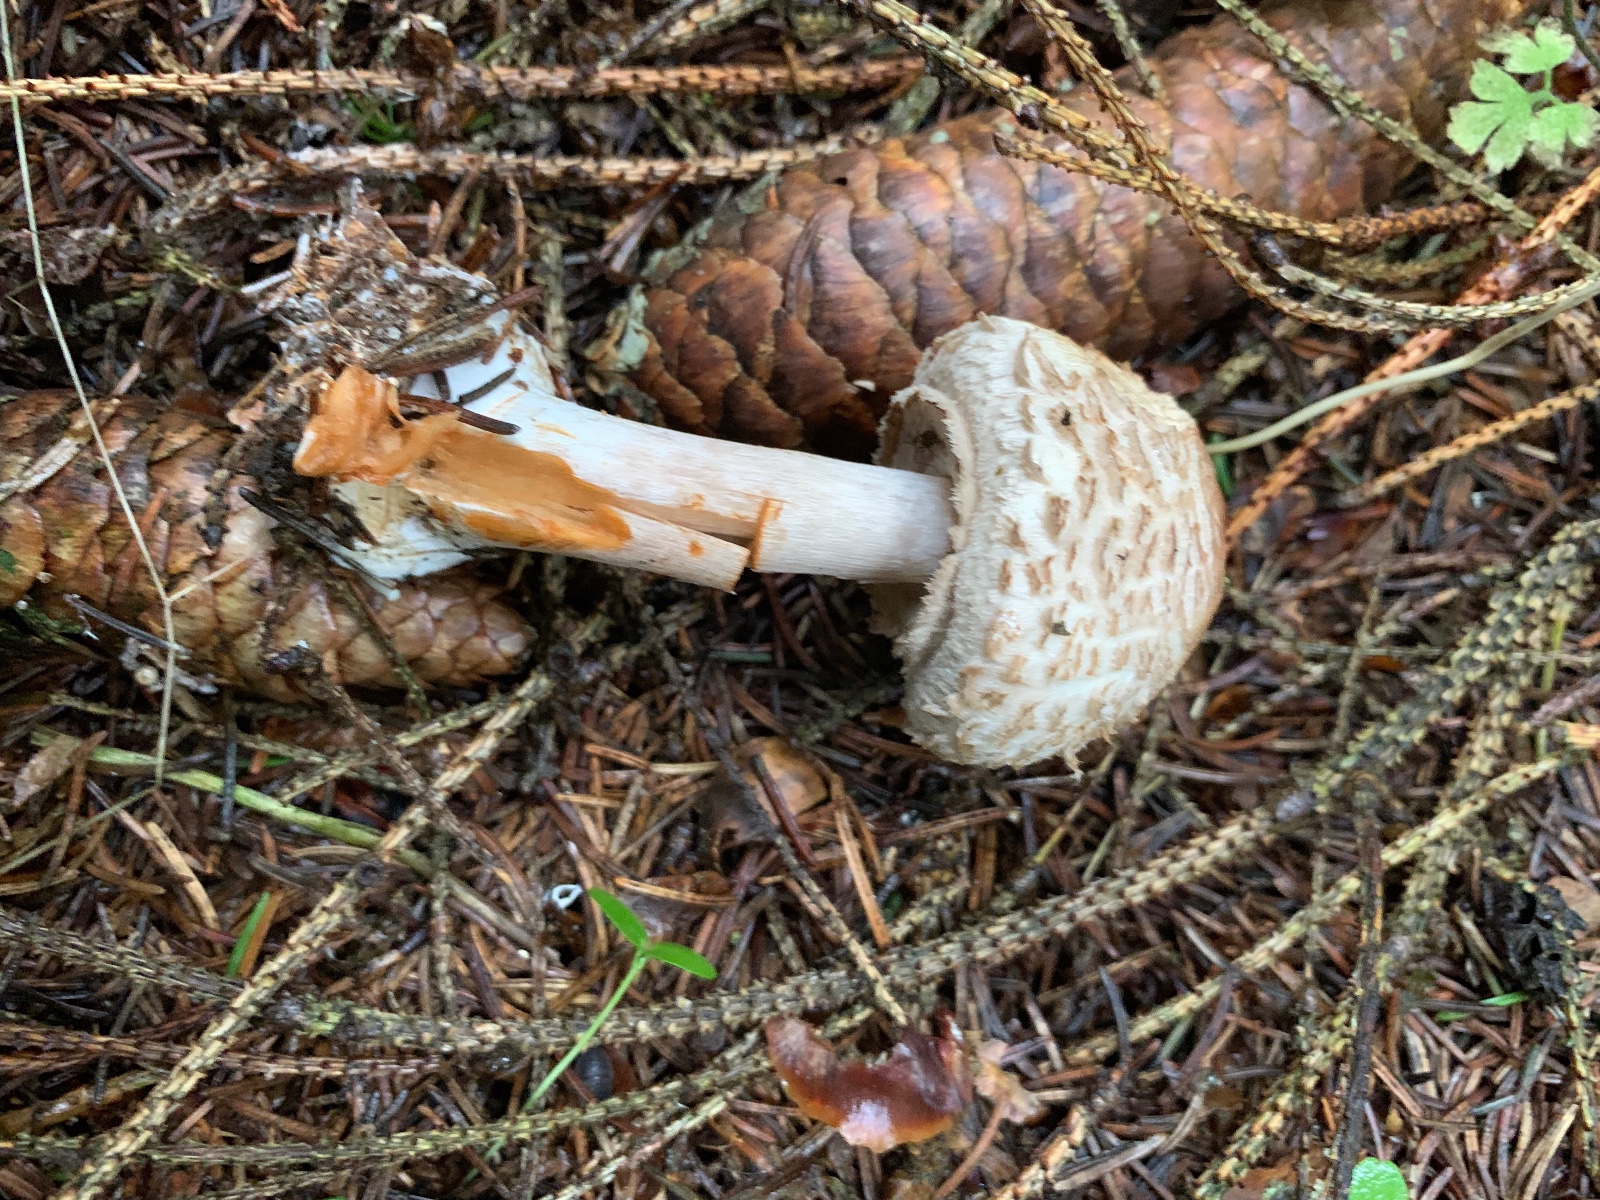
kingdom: Fungi
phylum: Basidiomycota
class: Agaricomycetes
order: Agaricales
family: Agaricaceae
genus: Chlorophyllum
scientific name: Chlorophyllum
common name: rabarberhat
